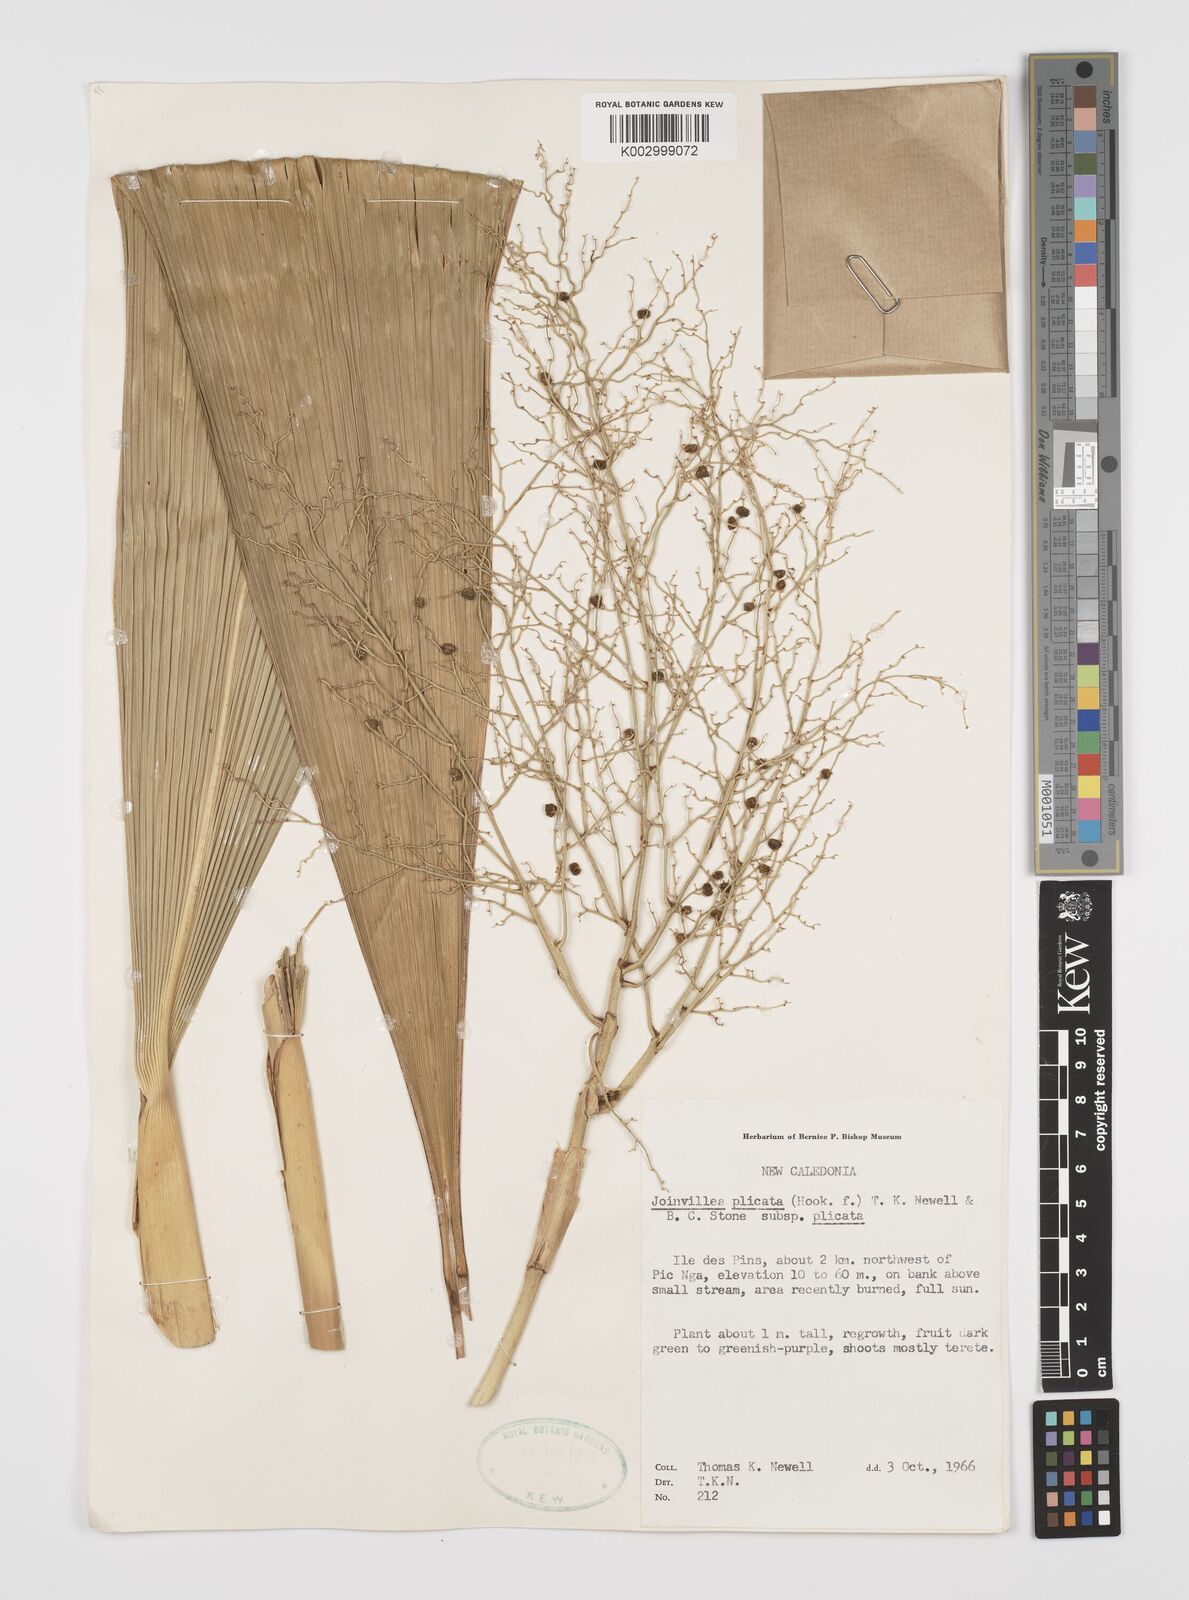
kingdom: Plantae
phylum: Tracheophyta
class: Liliopsida
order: Poales
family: Joinvilleaceae
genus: Joinvillea
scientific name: Joinvillea plicata
